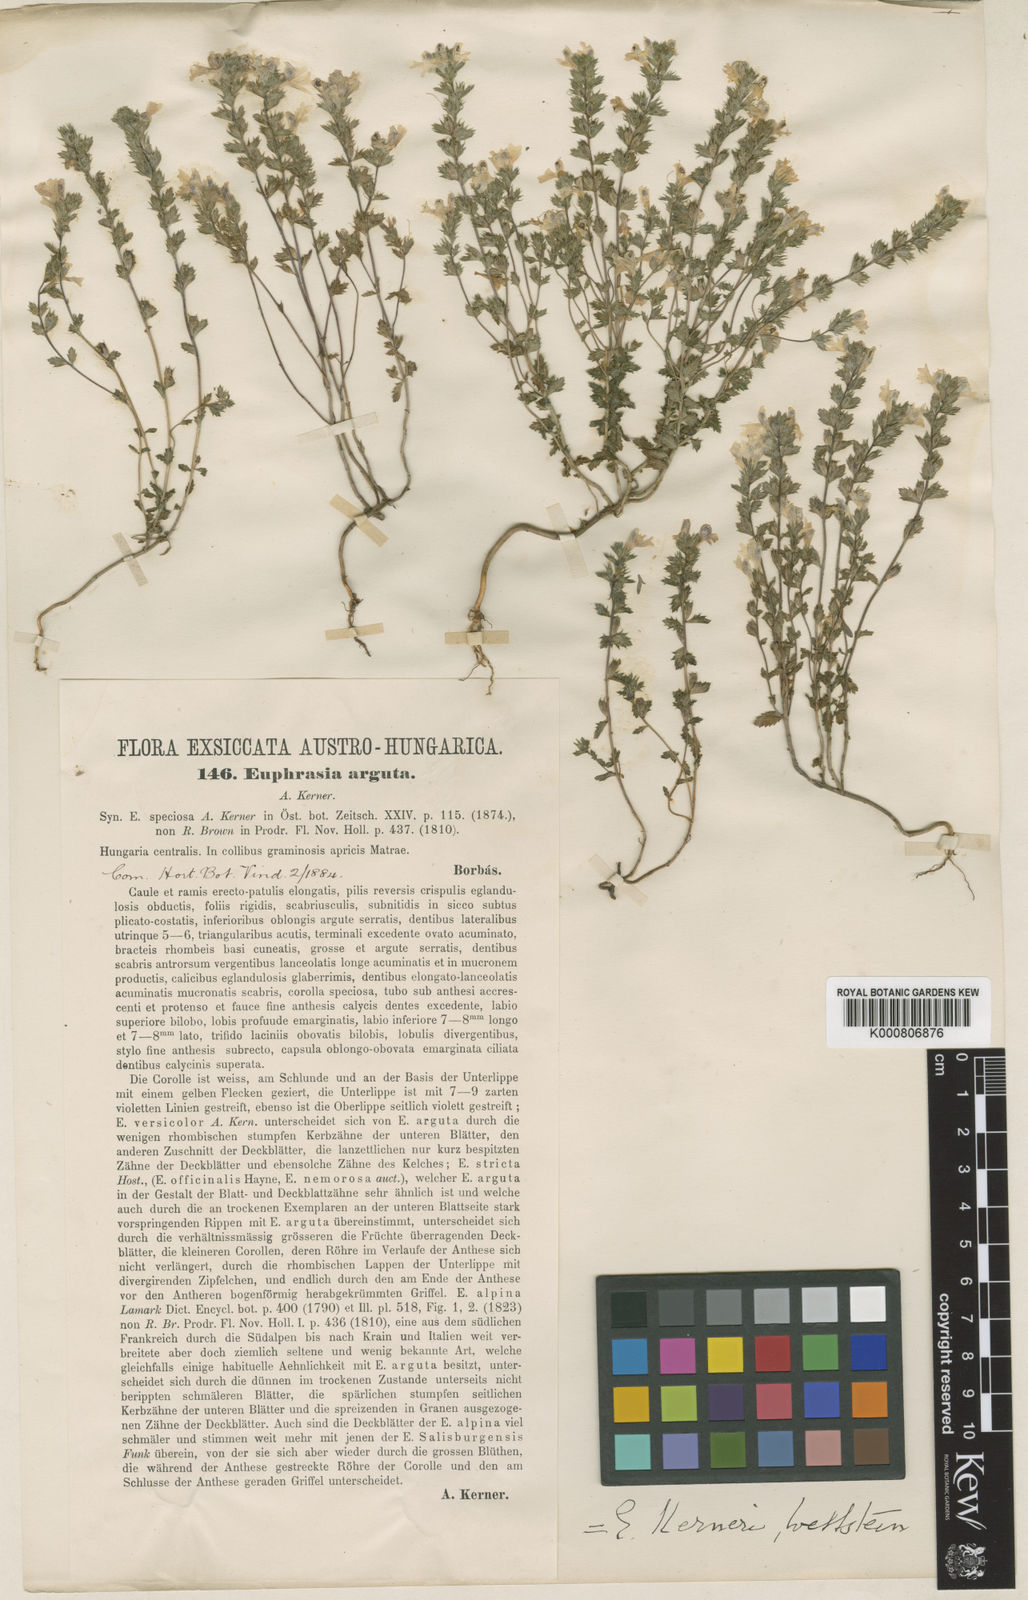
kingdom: Plantae
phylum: Tracheophyta
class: Magnoliopsida
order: Lamiales
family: Orobanchaceae
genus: Euphrasia
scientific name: Euphrasia kerneri
